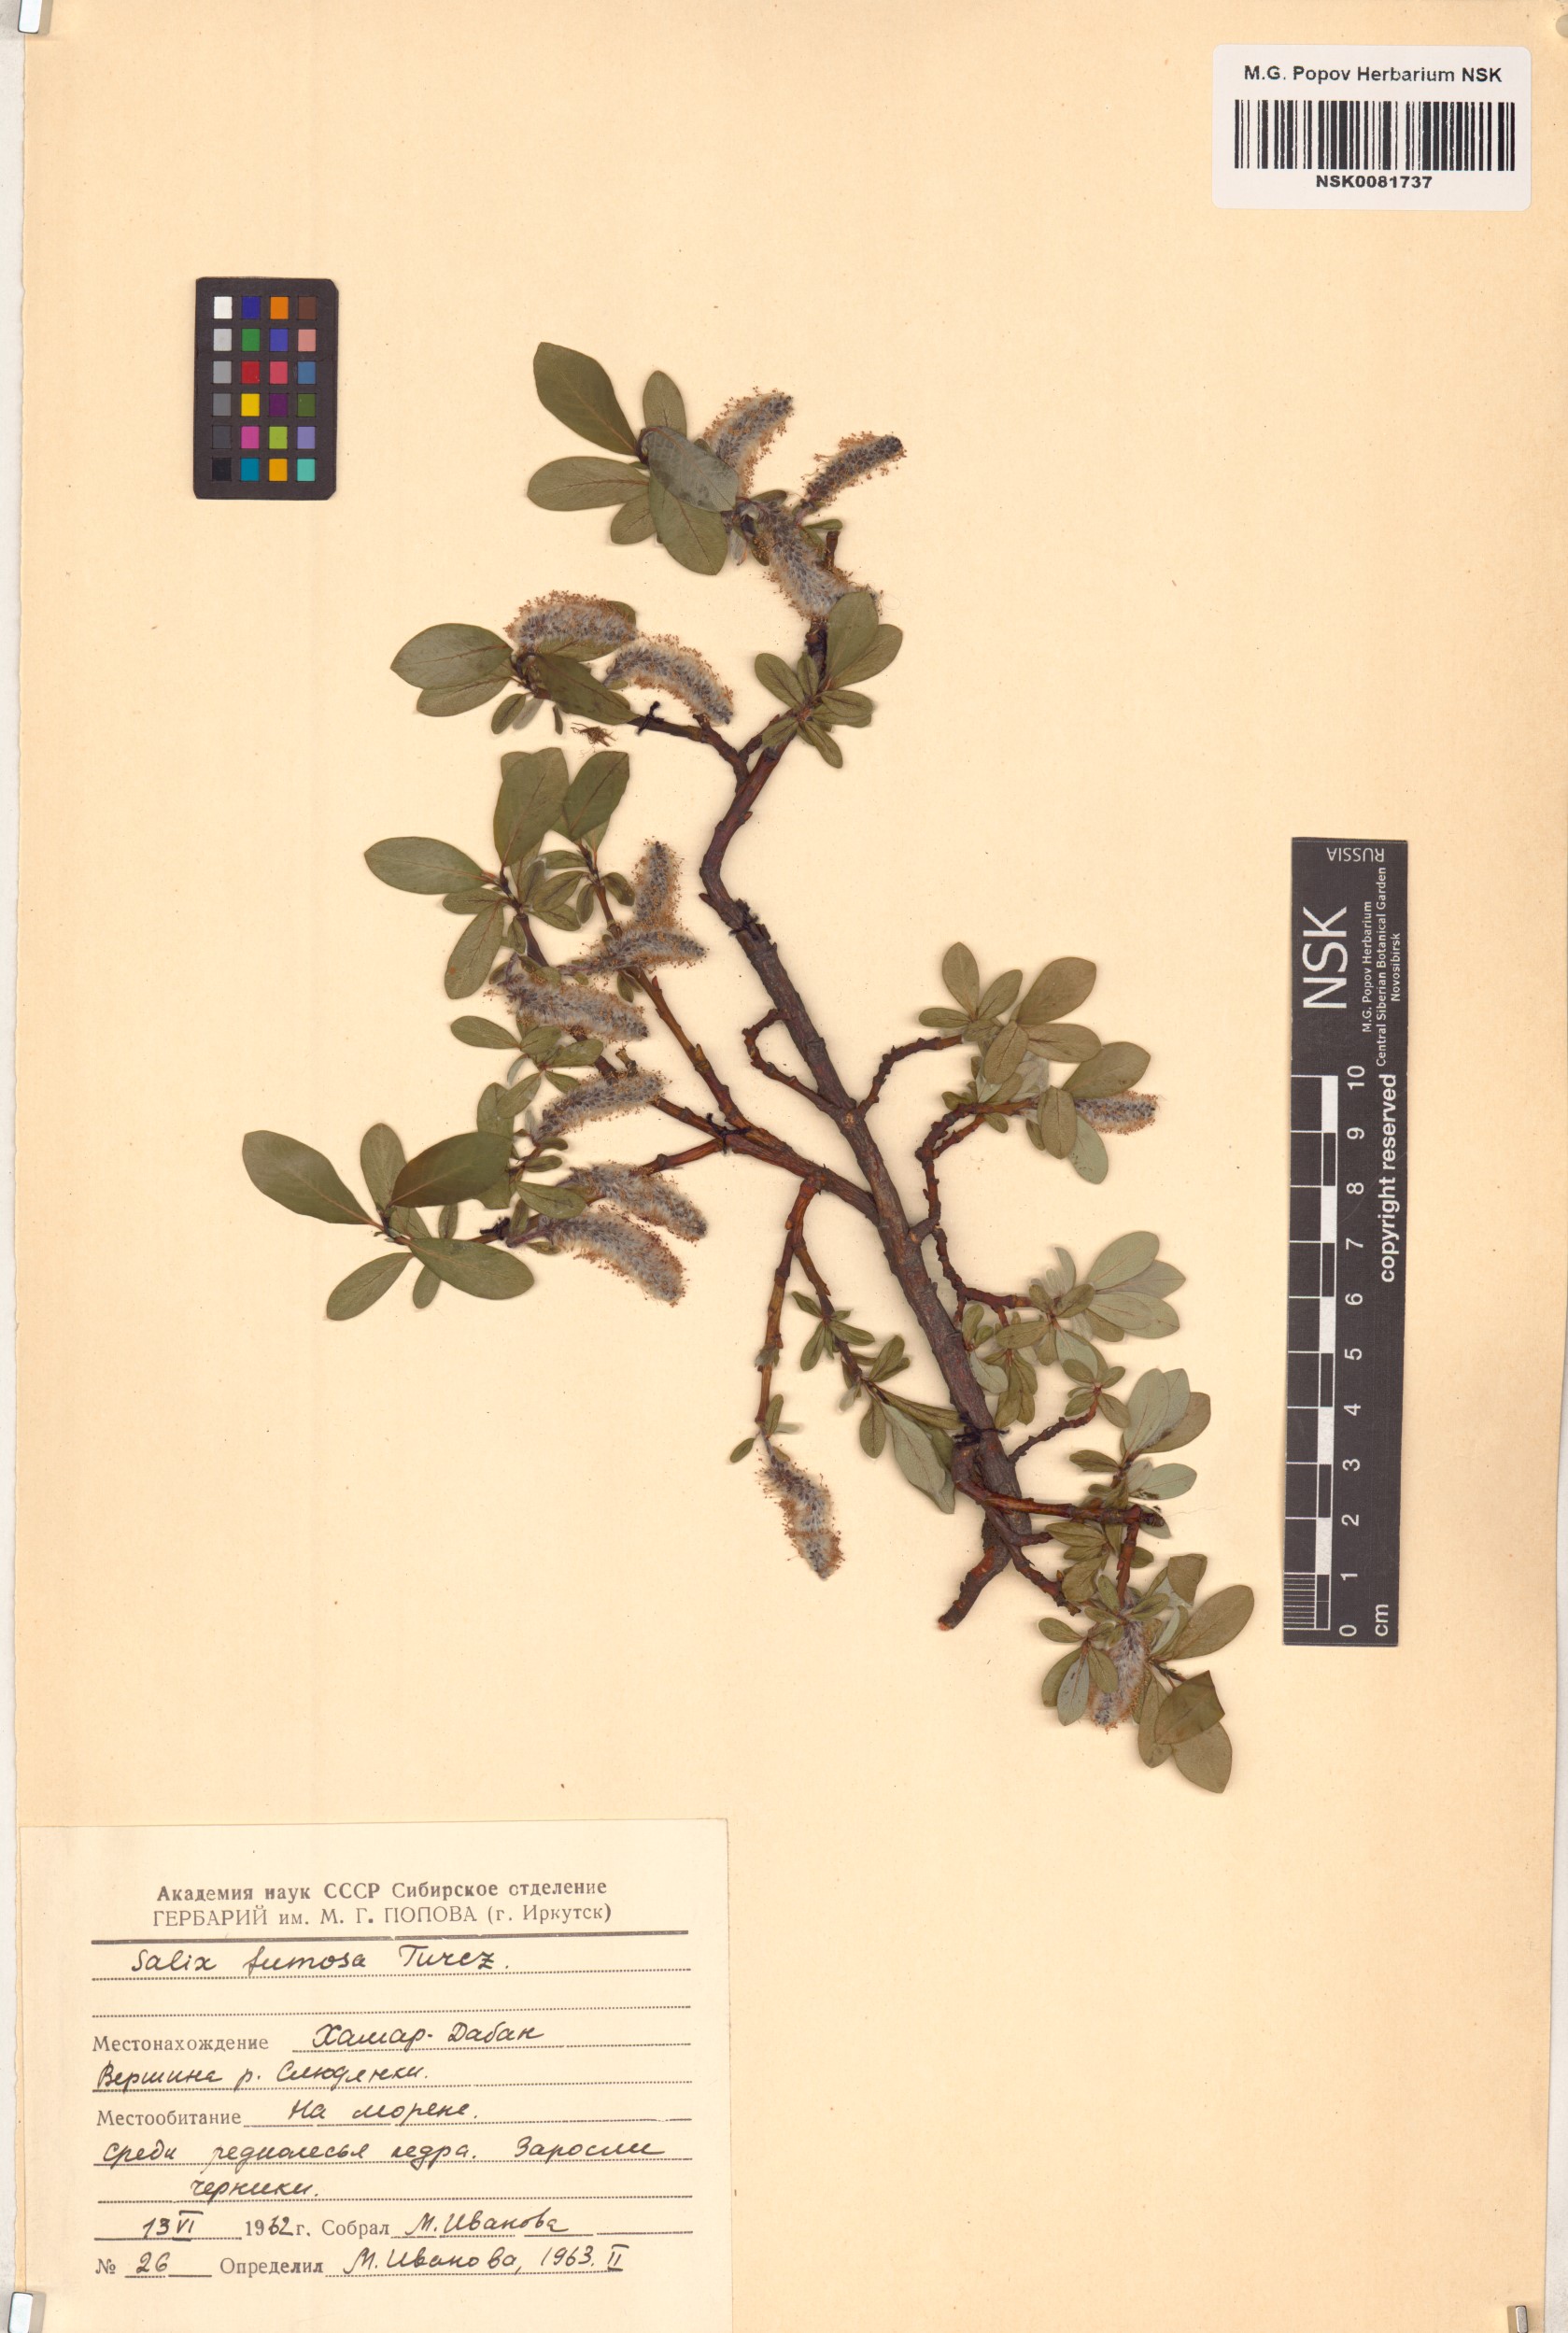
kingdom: Plantae
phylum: Tracheophyta
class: Magnoliopsida
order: Malpighiales
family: Salicaceae
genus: Salix
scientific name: Salix saxatilis
